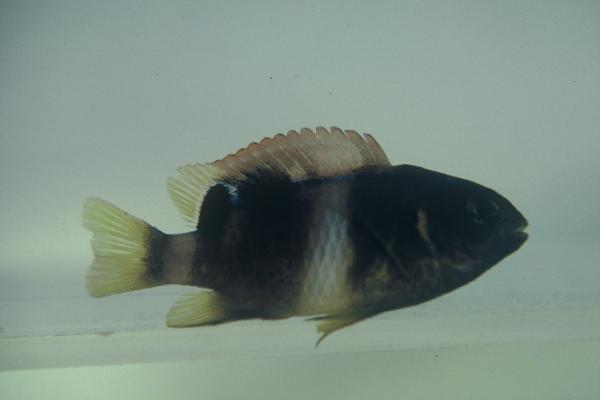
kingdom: Animalia
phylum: Chordata
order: Perciformes
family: Pomacentridae
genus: Chrysiptera
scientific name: Chrysiptera
